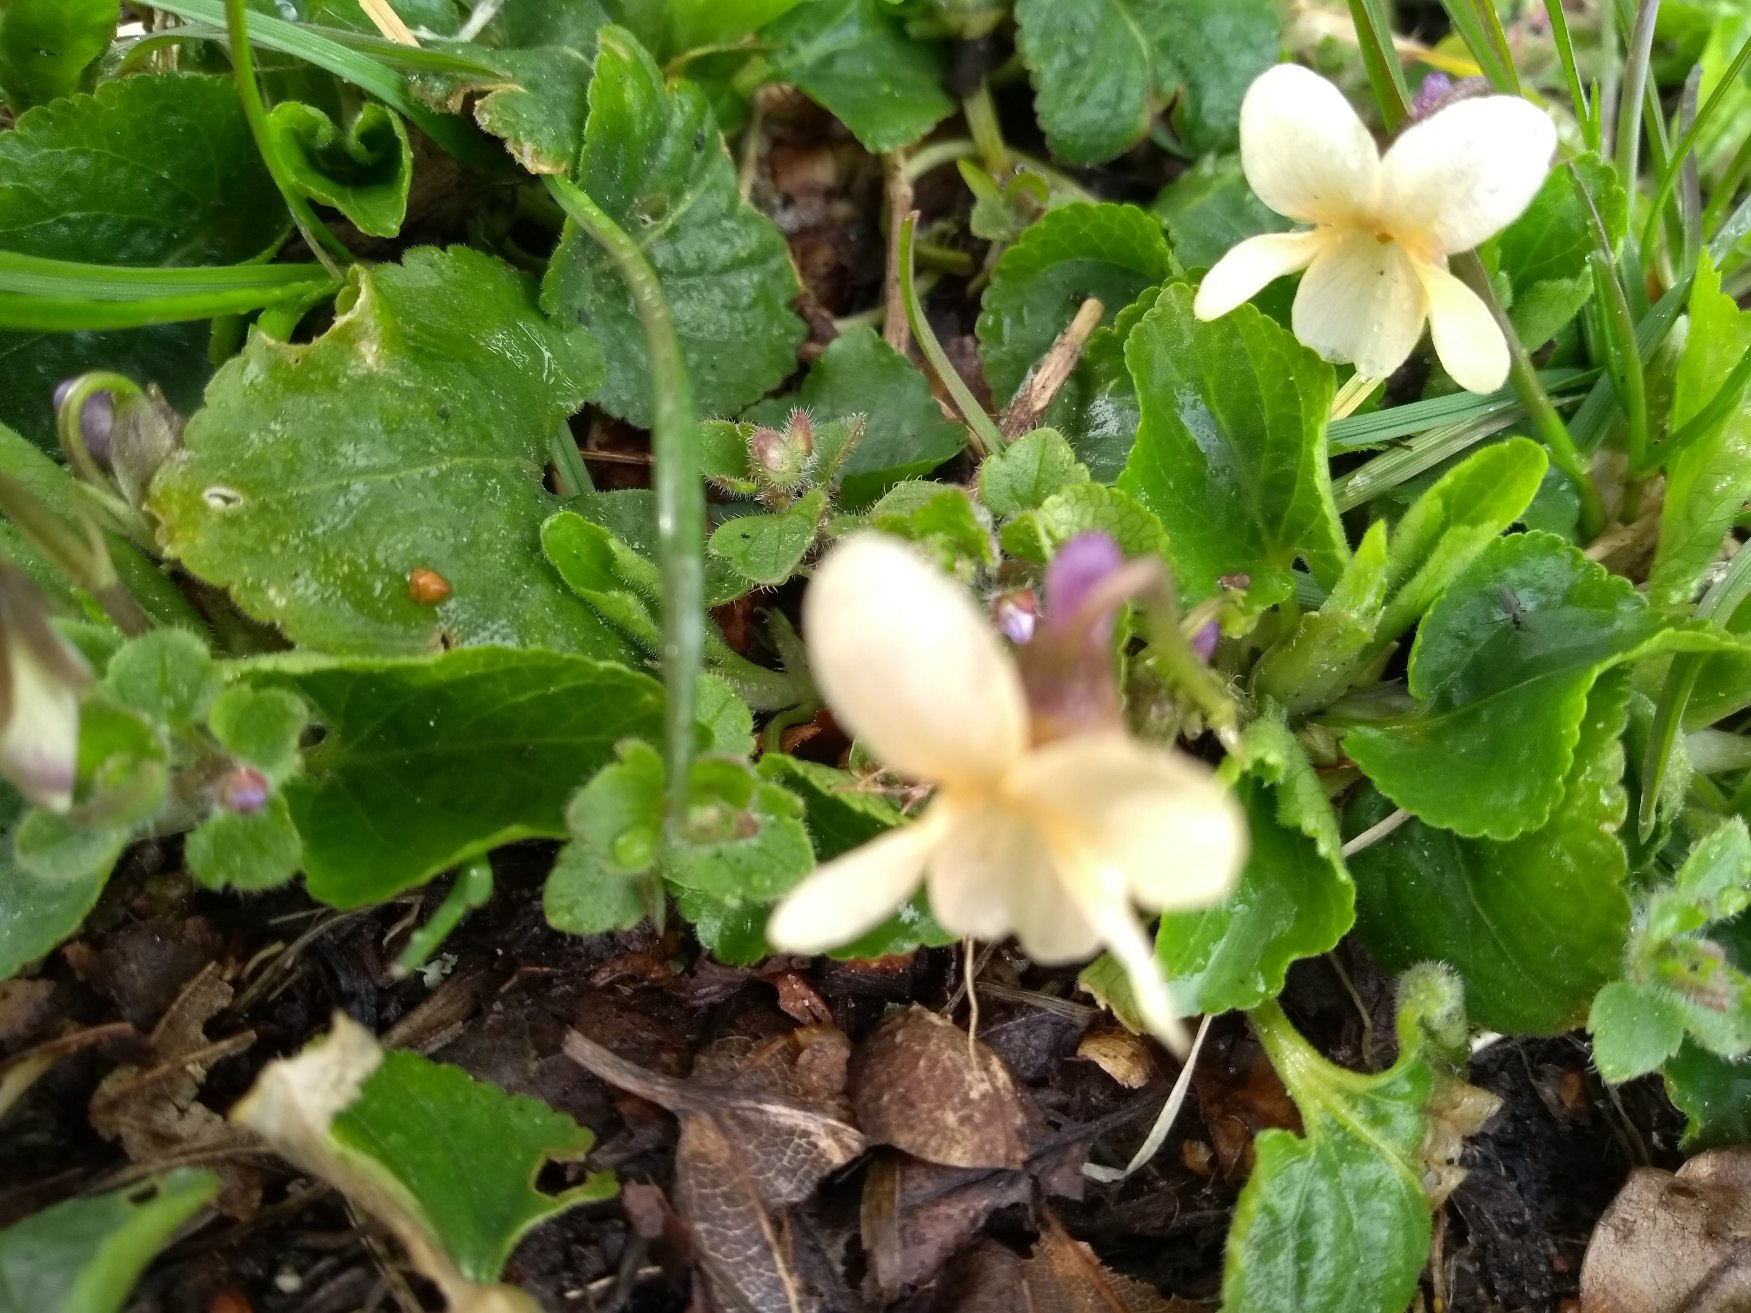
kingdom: Plantae
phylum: Tracheophyta
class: Magnoliopsida
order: Malpighiales
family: Violaceae
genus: Viola
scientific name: Viola odorata
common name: Marts-viol
